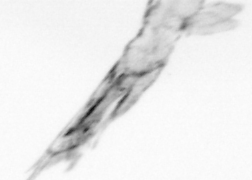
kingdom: Animalia
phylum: Arthropoda
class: Copepoda
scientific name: Copepoda
